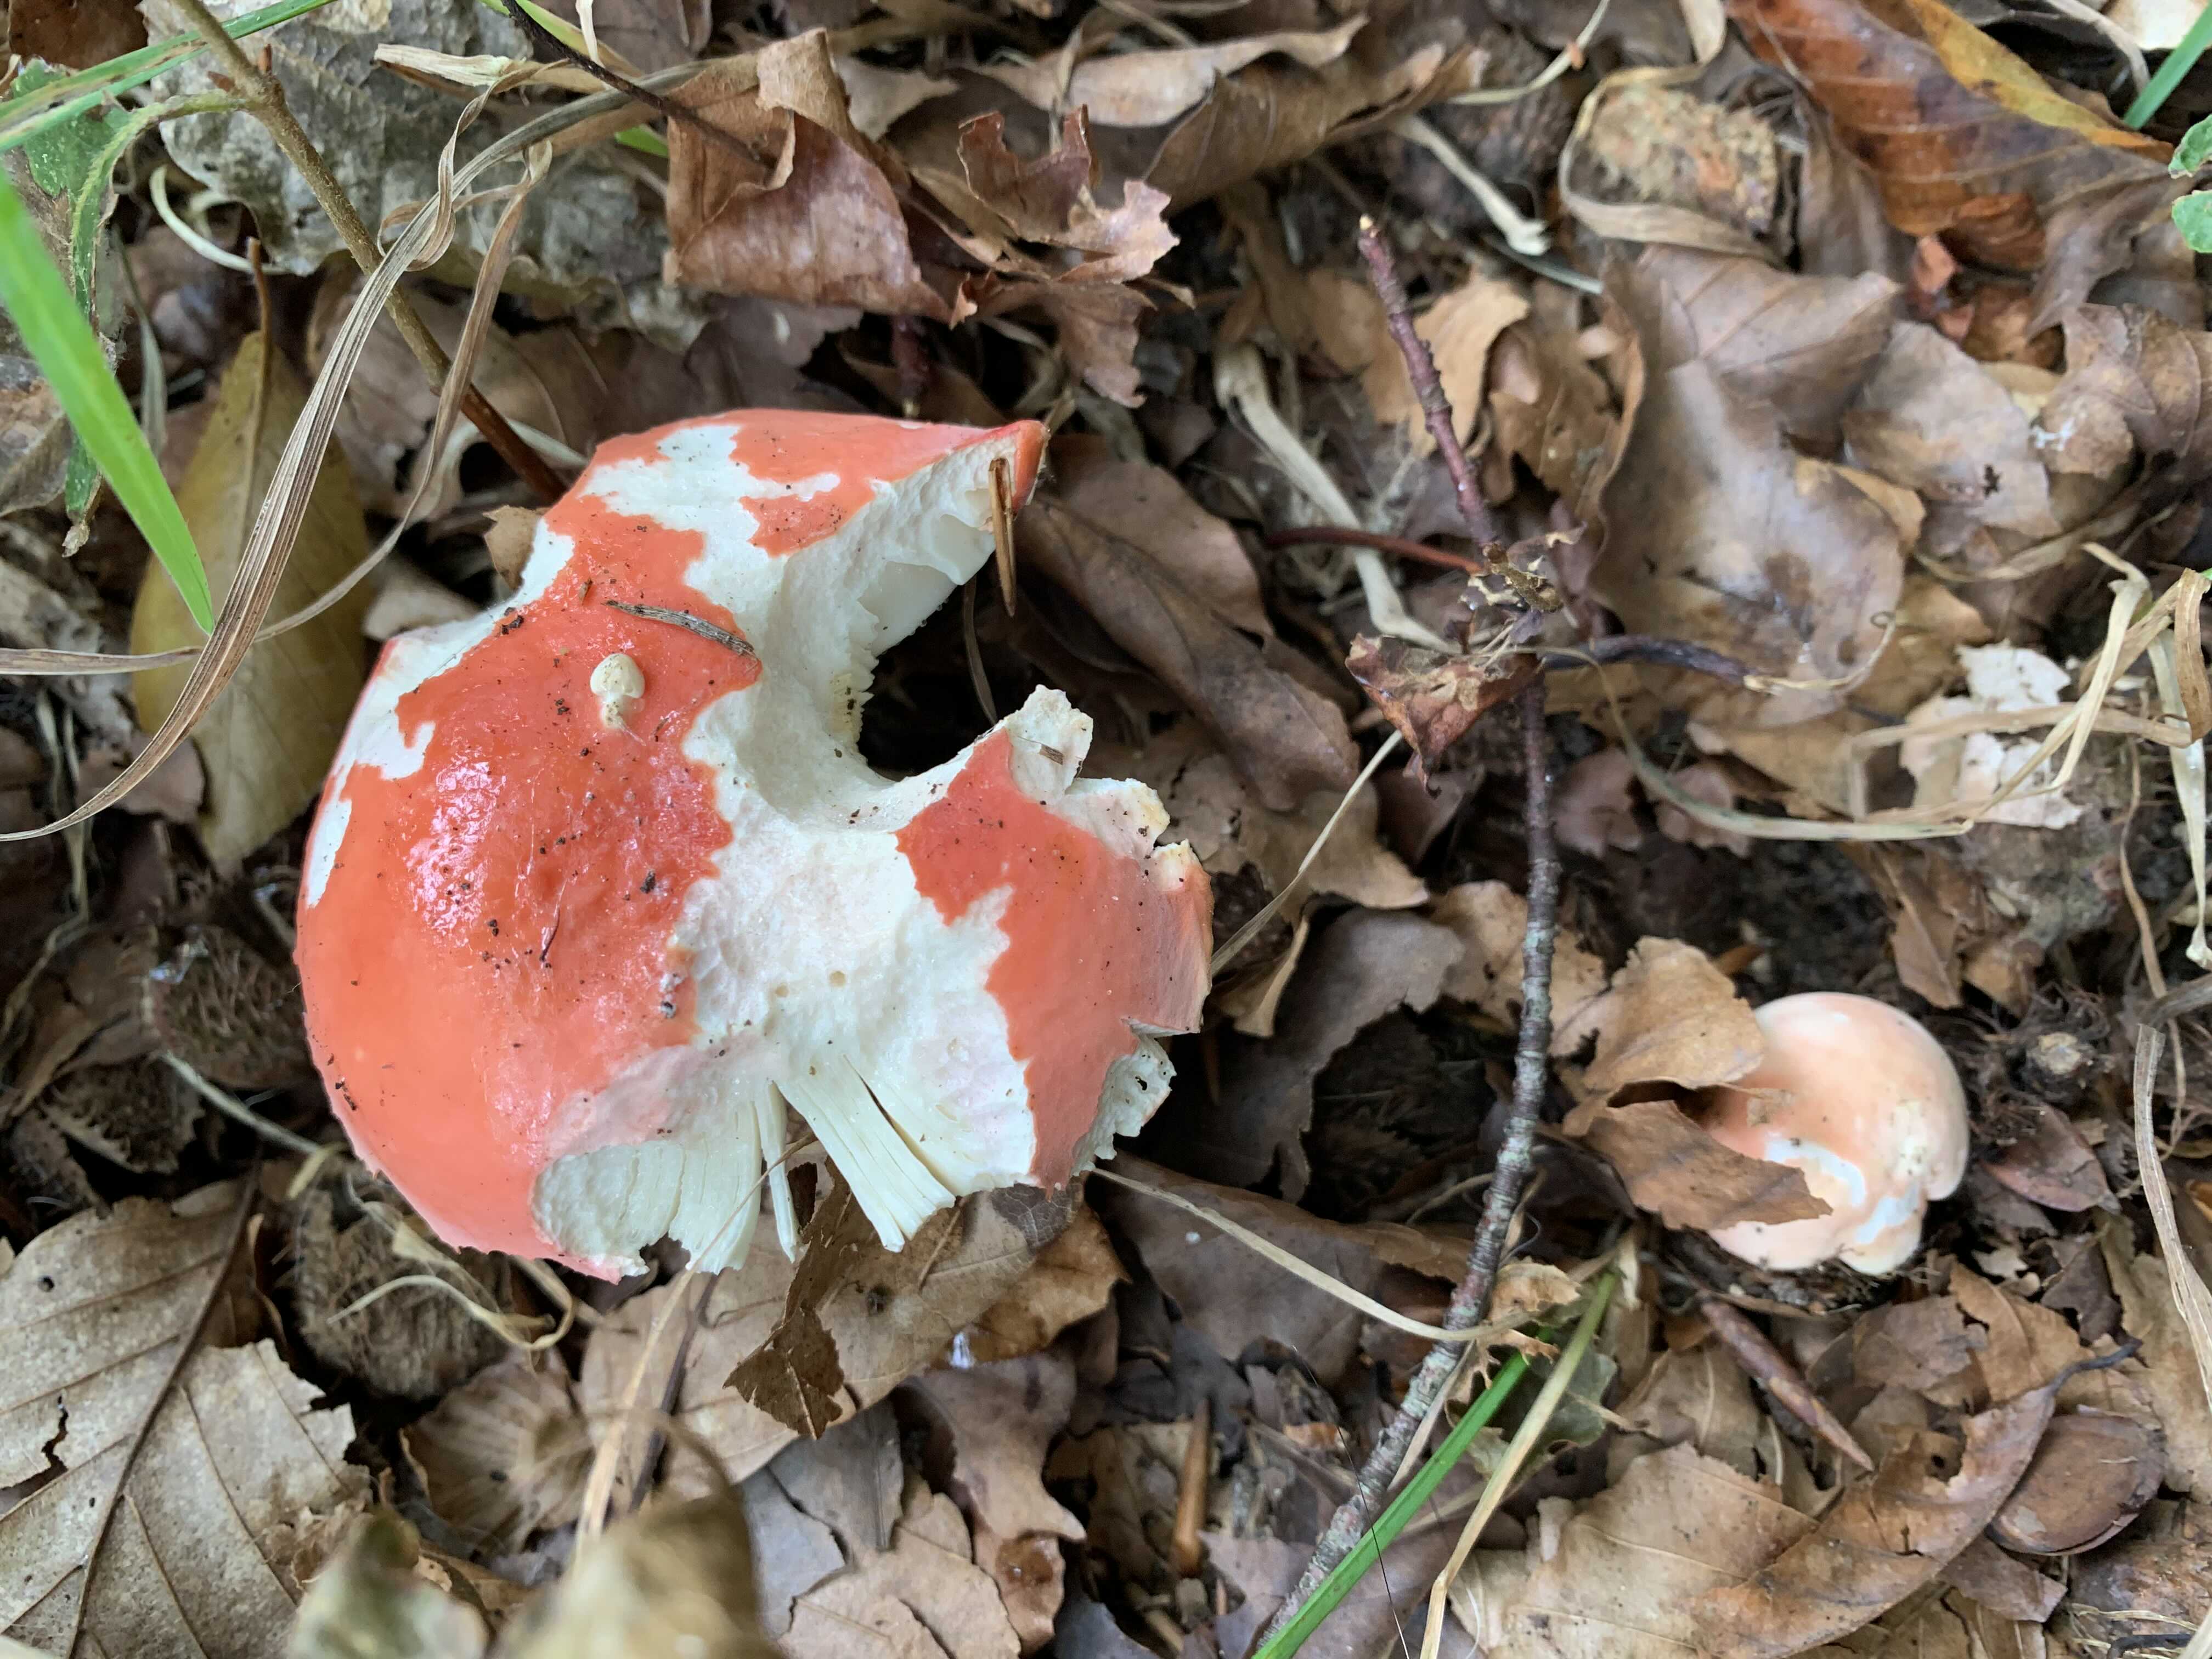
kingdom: Fungi
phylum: Basidiomycota
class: Agaricomycetes
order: Russulales
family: Russulaceae
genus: Russula
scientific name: Russula rosea
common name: fastkødet skørhat
